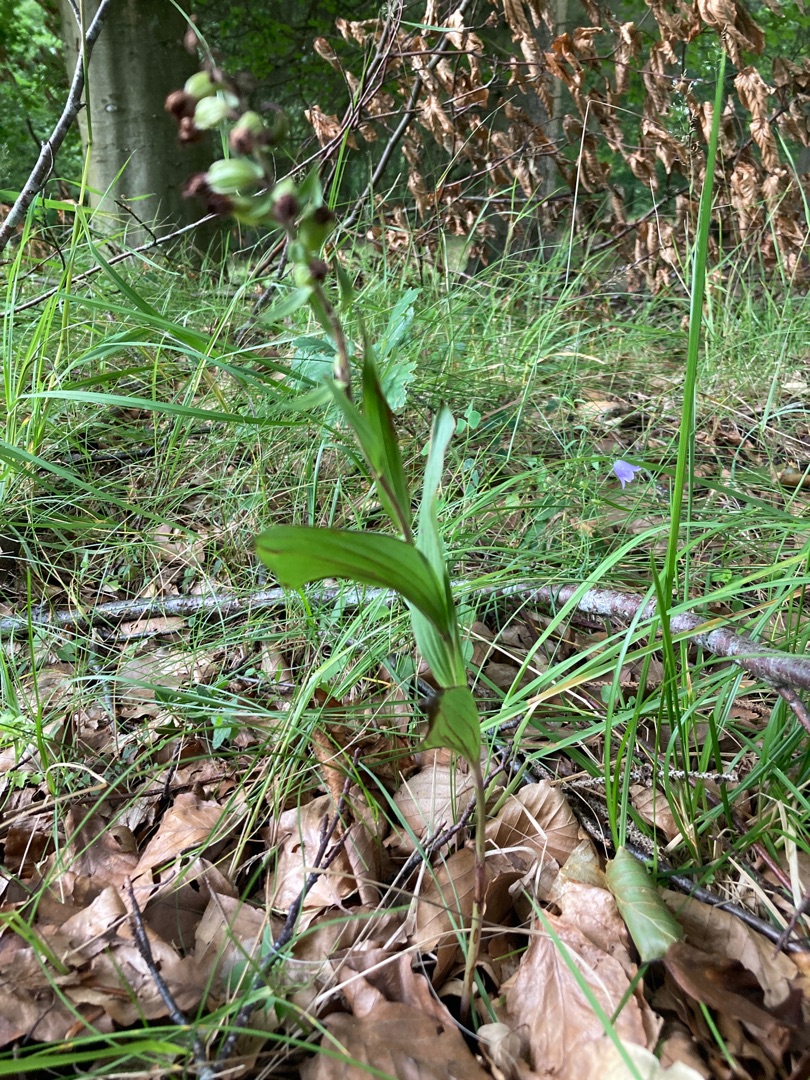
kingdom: Plantae
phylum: Tracheophyta
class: Liliopsida
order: Asparagales
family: Orchidaceae
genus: Epipactis
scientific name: Epipactis helleborine
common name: Skov-hullæbe
